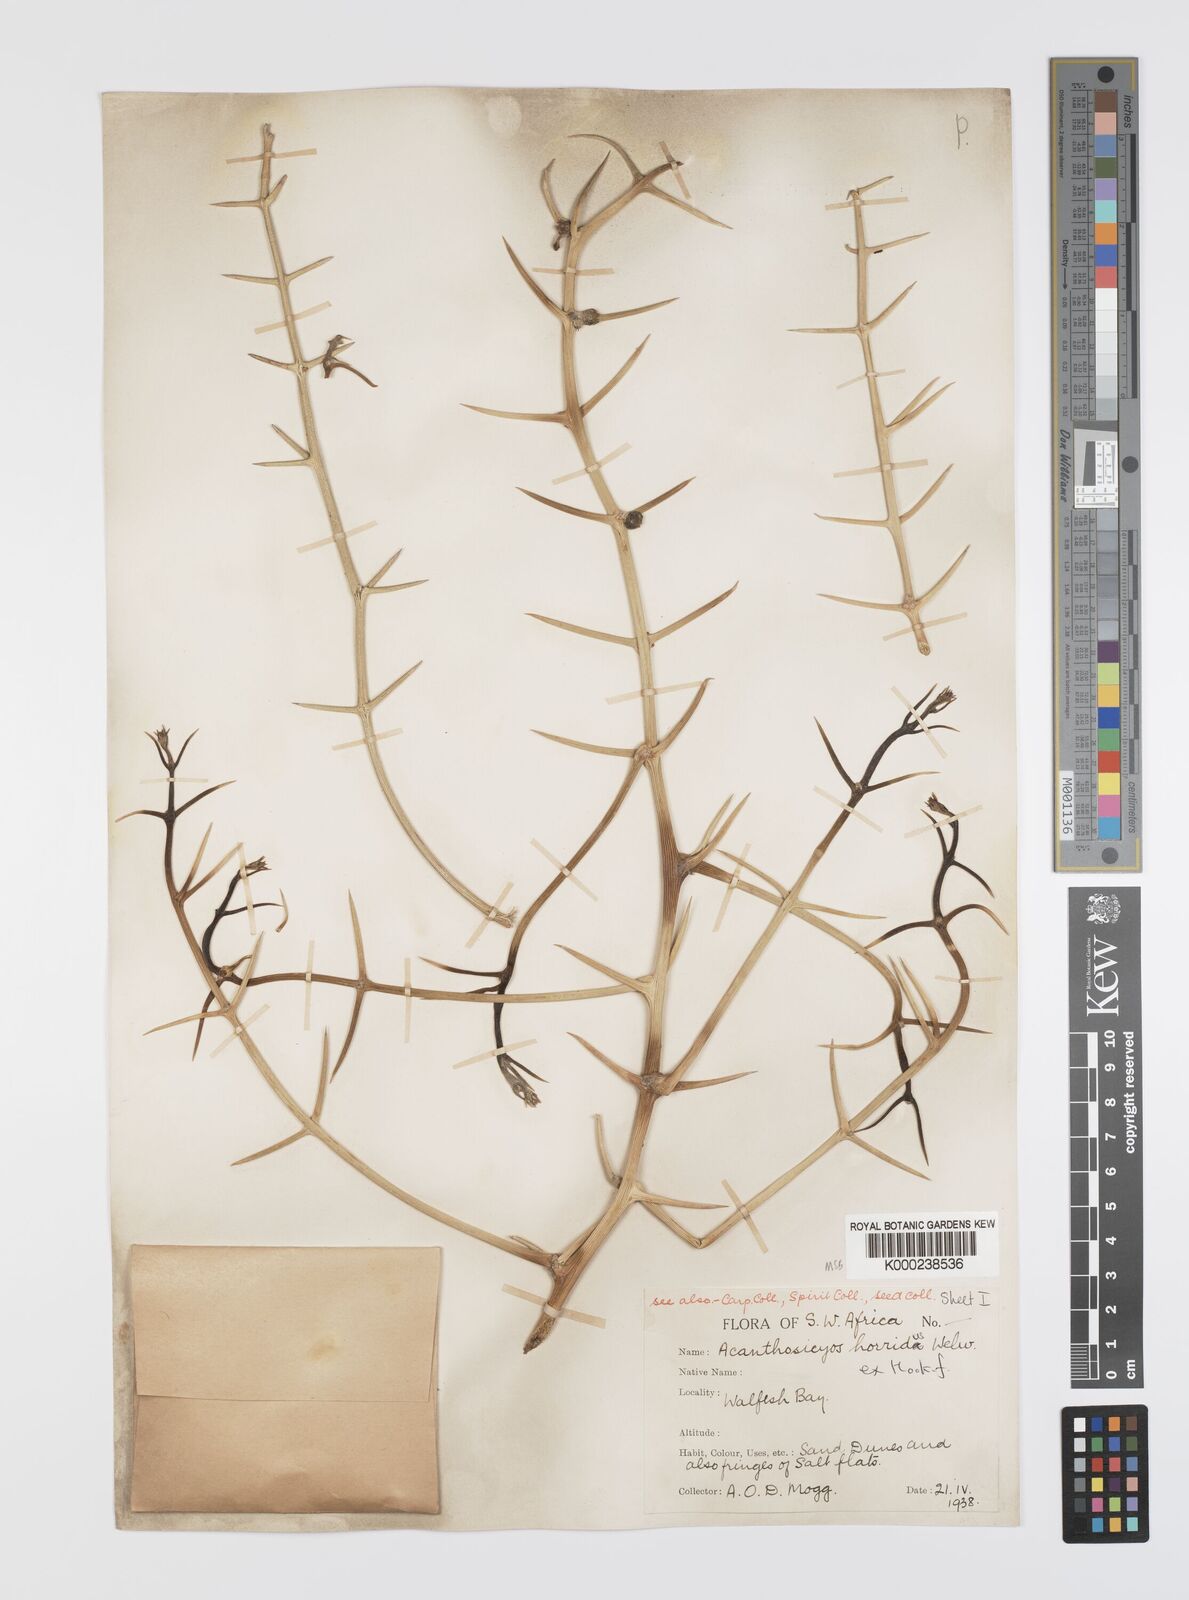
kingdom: Plantae
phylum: Tracheophyta
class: Magnoliopsida
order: Cucurbitales
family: Cucurbitaceae
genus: Acanthosicyos
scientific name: Acanthosicyos horridus
